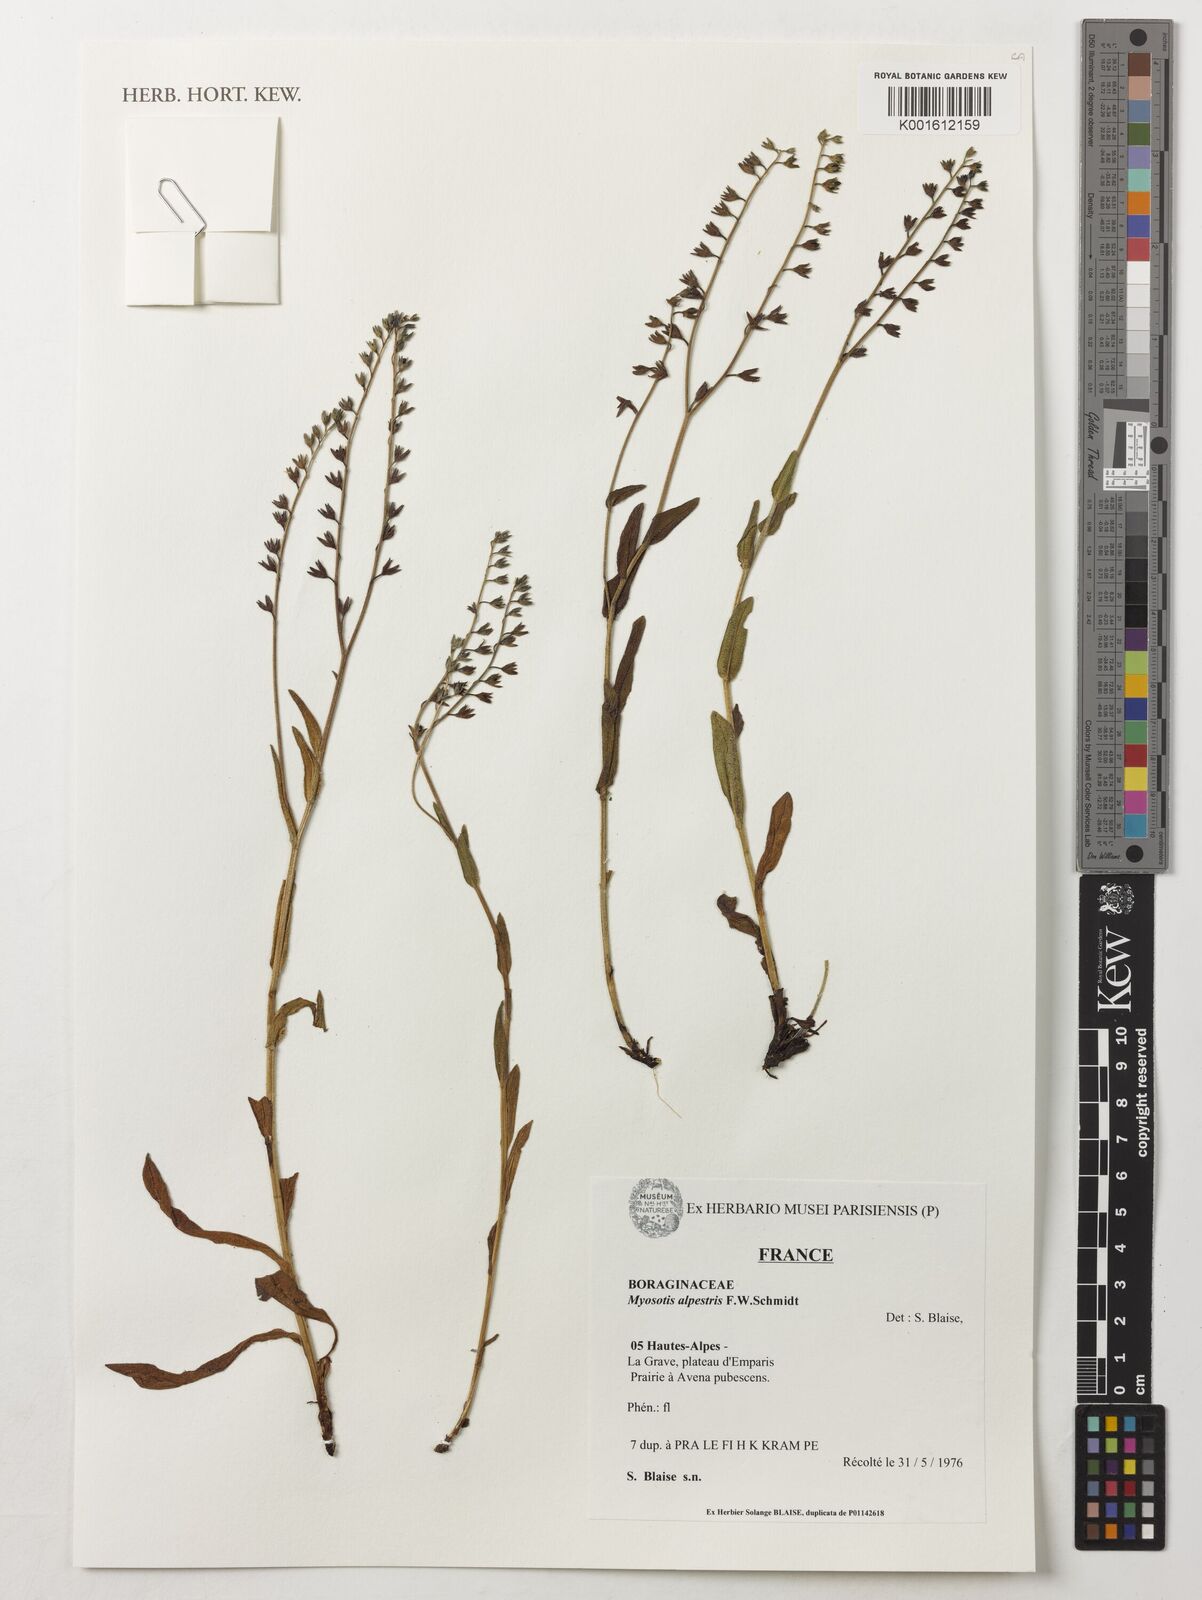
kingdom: Plantae
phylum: Tracheophyta
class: Magnoliopsida
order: Boraginales
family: Boraginaceae
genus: Myosotis
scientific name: Myosotis alpestris
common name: Alpine forget-me-not
